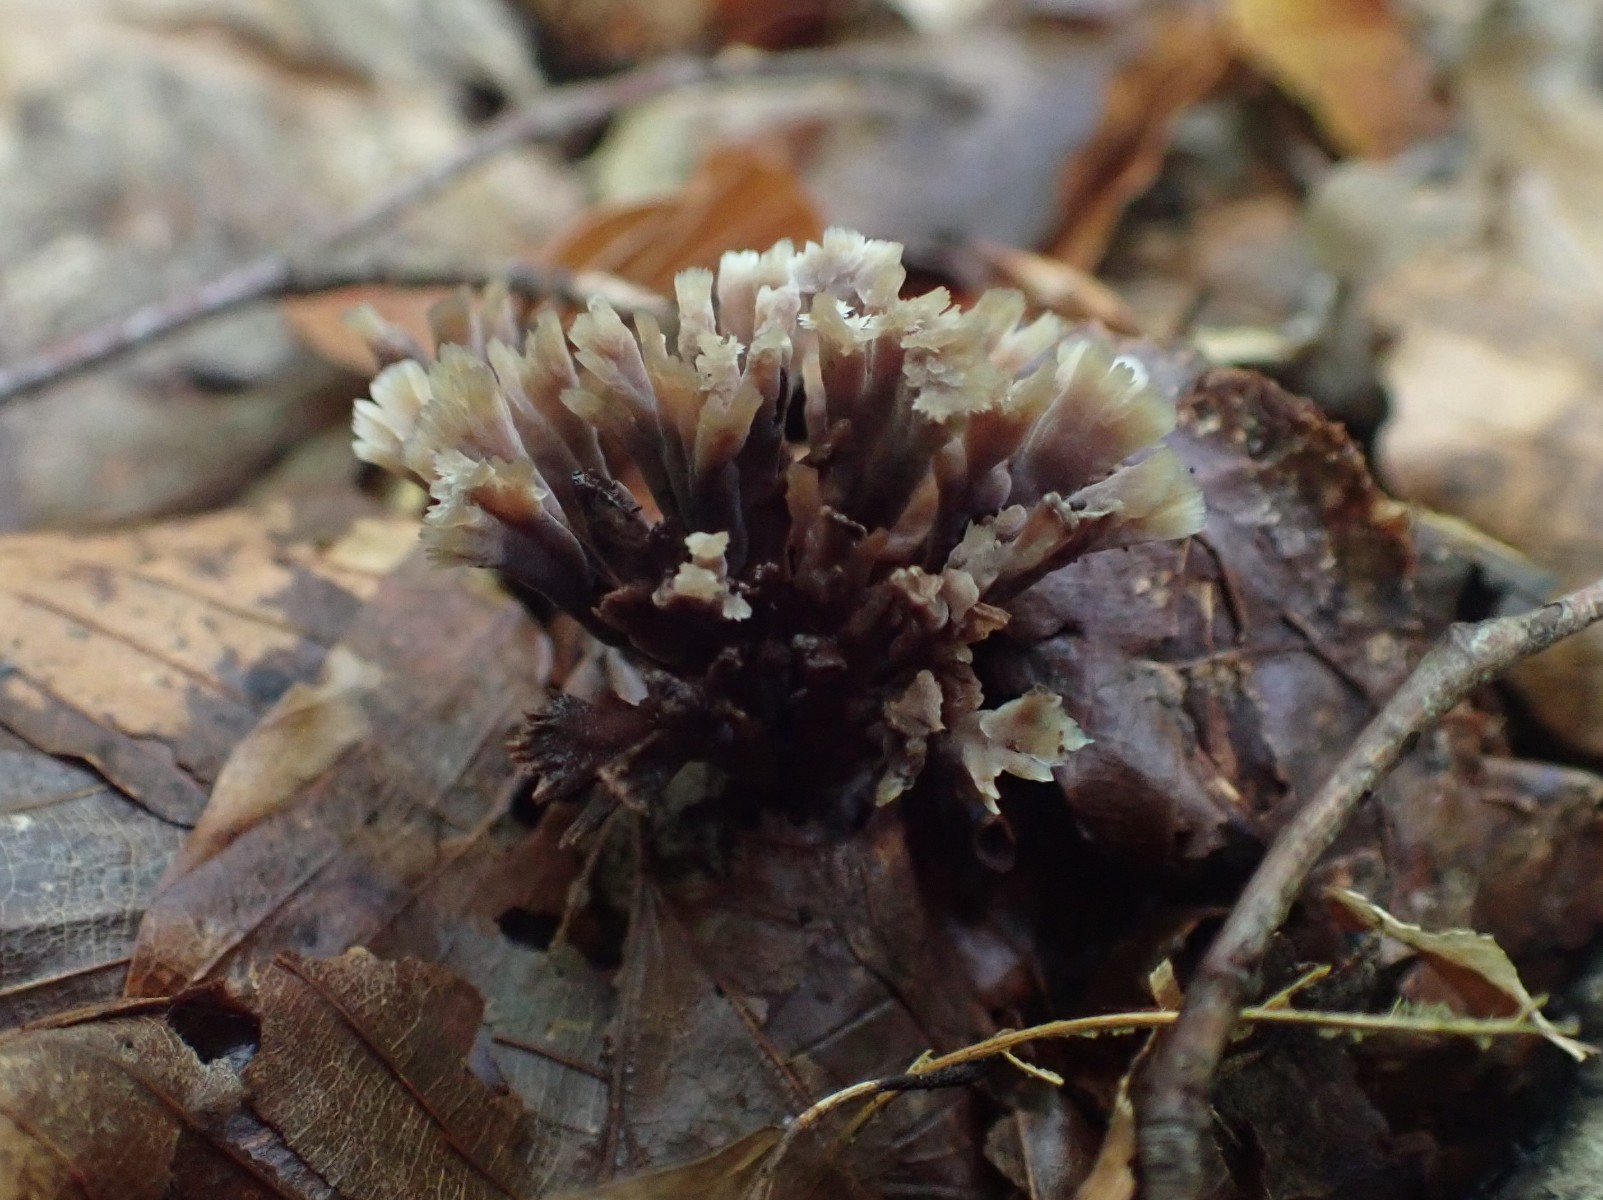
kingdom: Fungi
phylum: Basidiomycota
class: Agaricomycetes
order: Thelephorales
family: Thelephoraceae
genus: Thelephora
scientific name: Thelephora anthocephala
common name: busk-frynsesvamp
